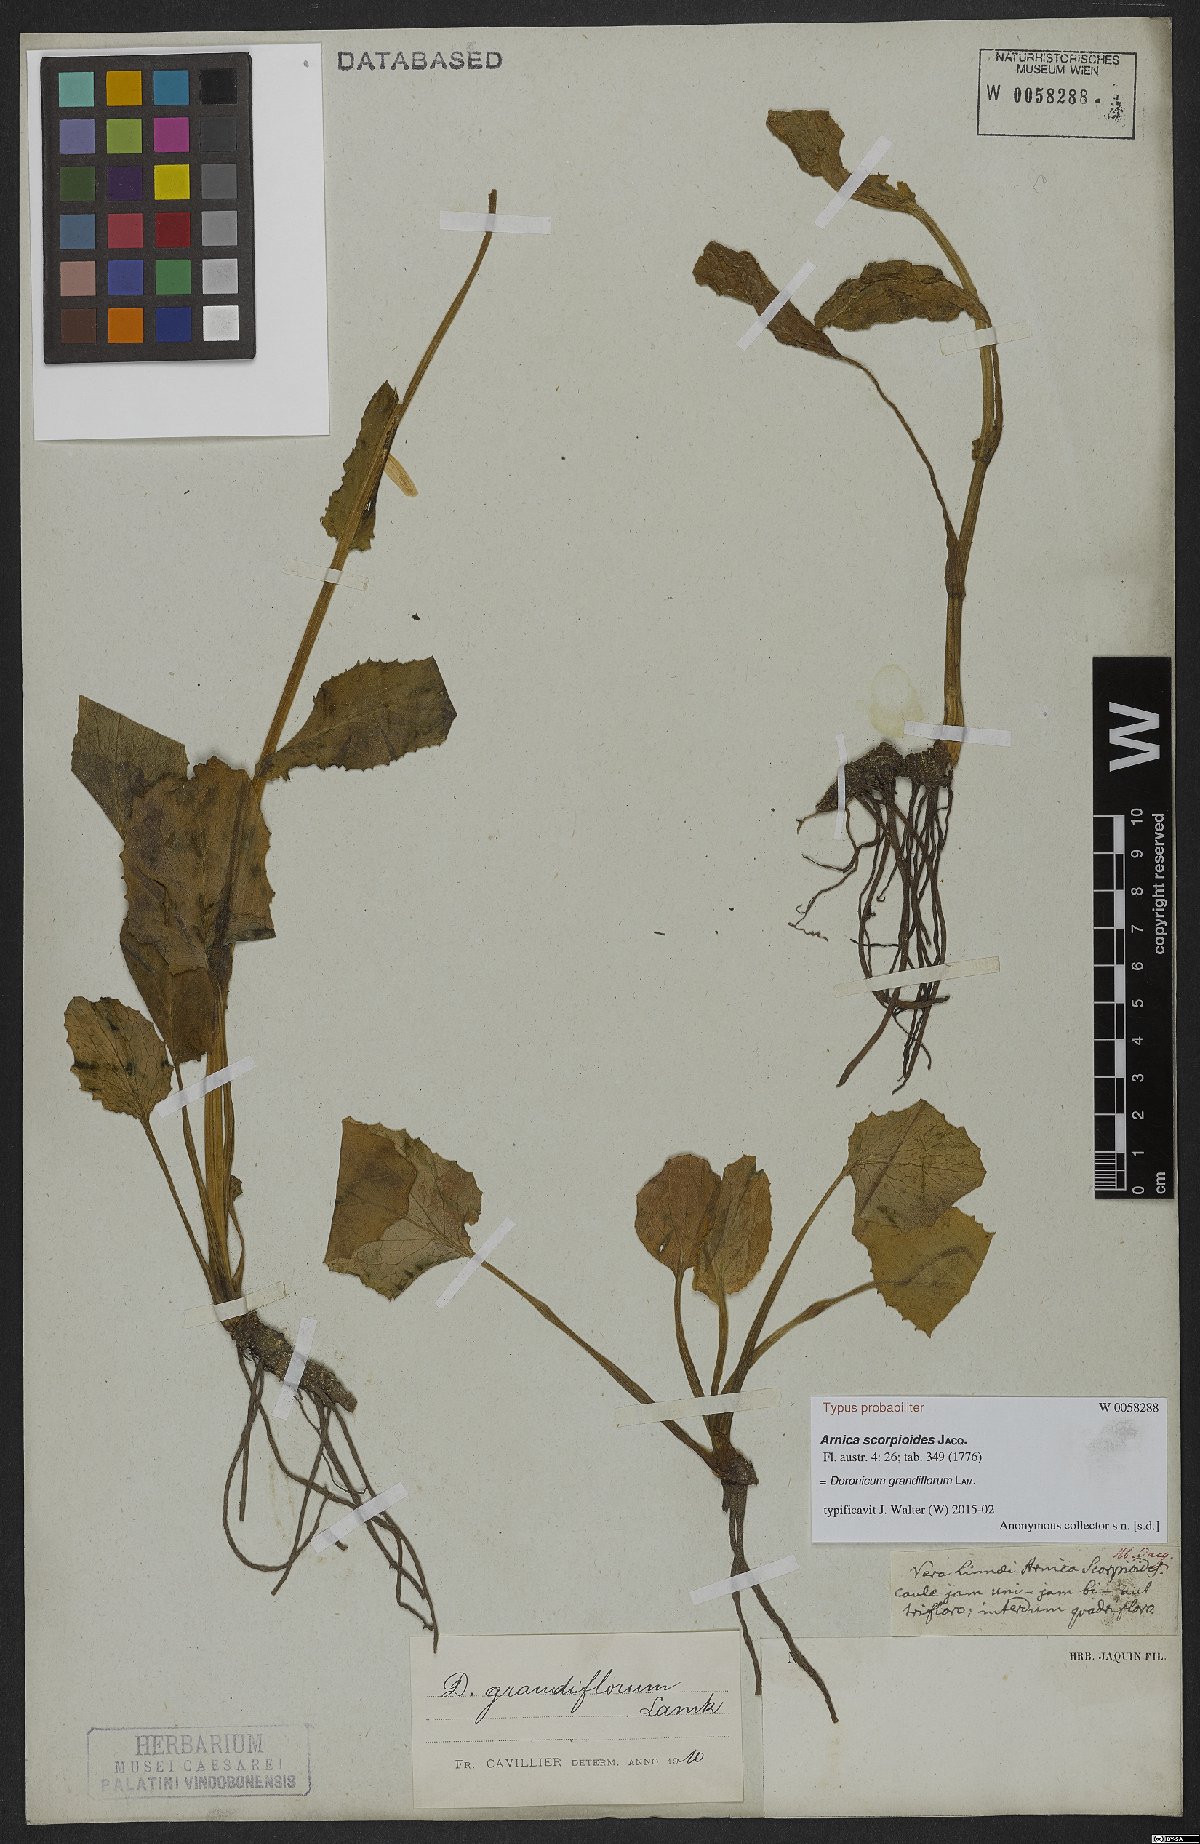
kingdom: Plantae
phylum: Tracheophyta
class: Magnoliopsida
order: Asterales
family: Asteraceae
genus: Doronicum
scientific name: Doronicum grandiflorum
